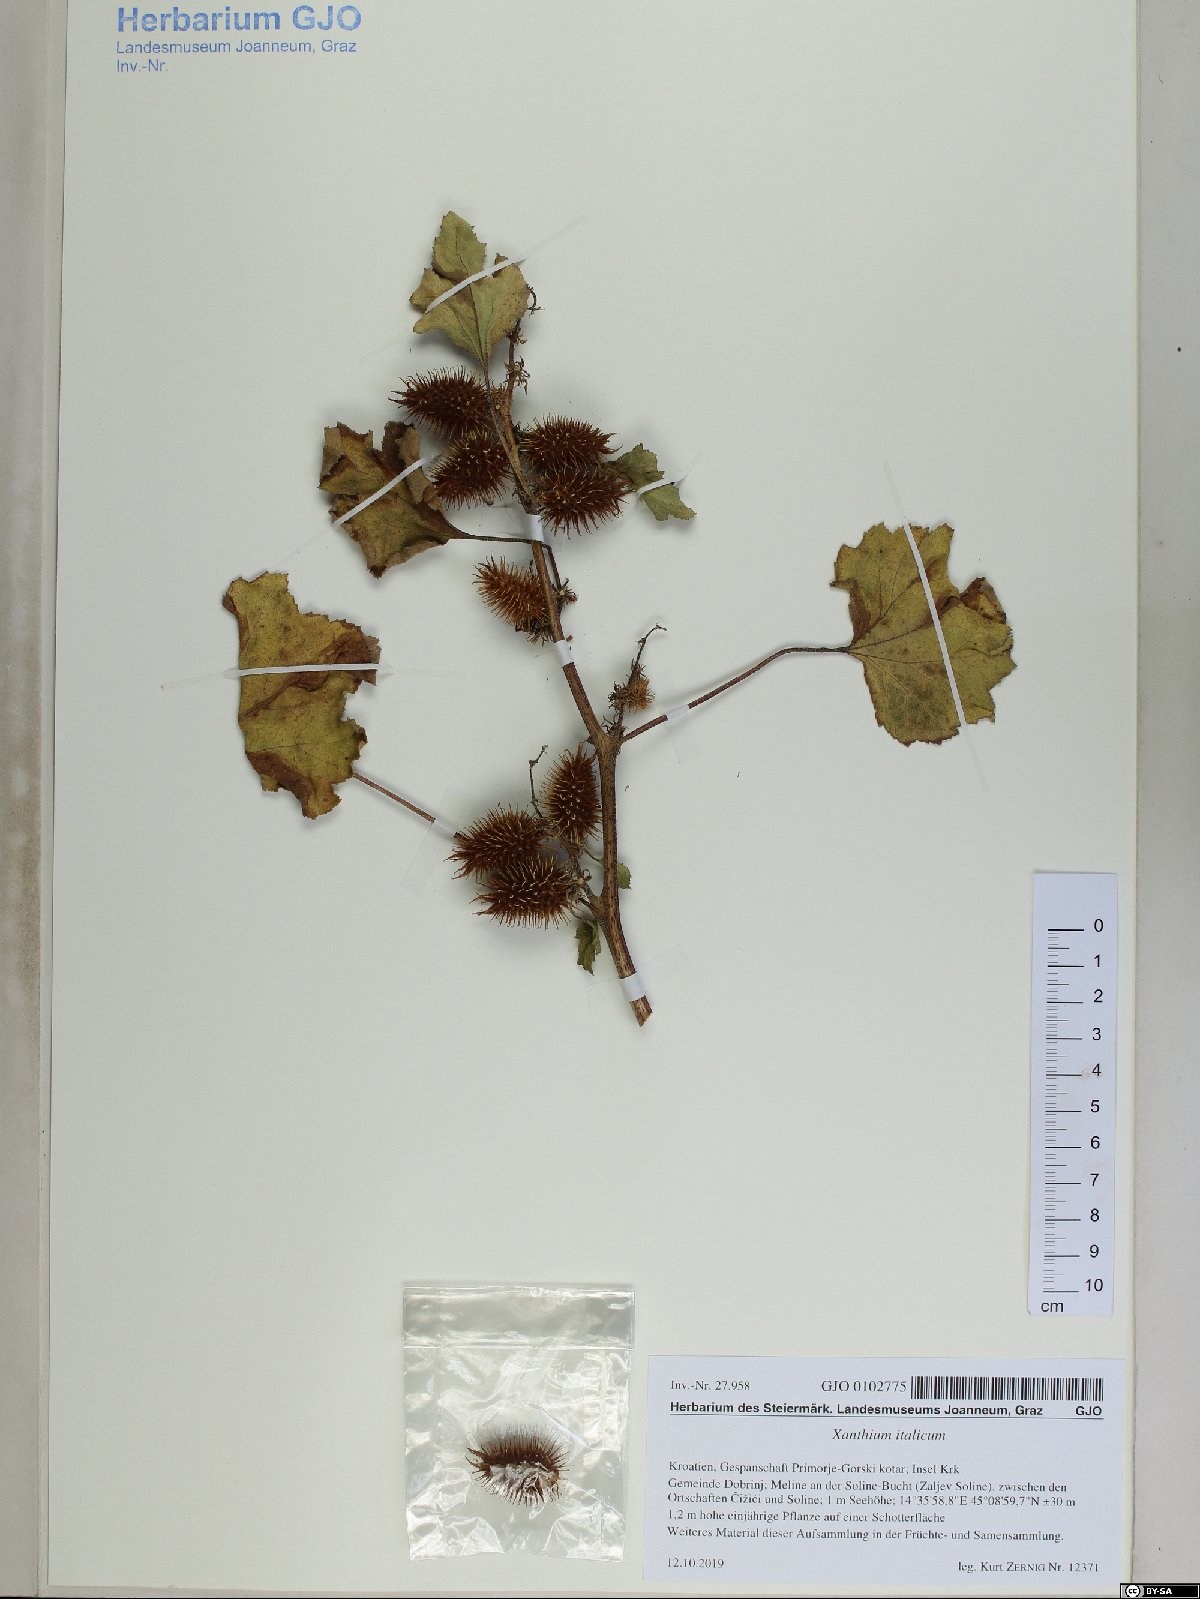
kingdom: Plantae
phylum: Tracheophyta
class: Magnoliopsida
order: Asterales
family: Asteraceae
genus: Xanthium
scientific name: Xanthium orientale
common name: Californian burr
